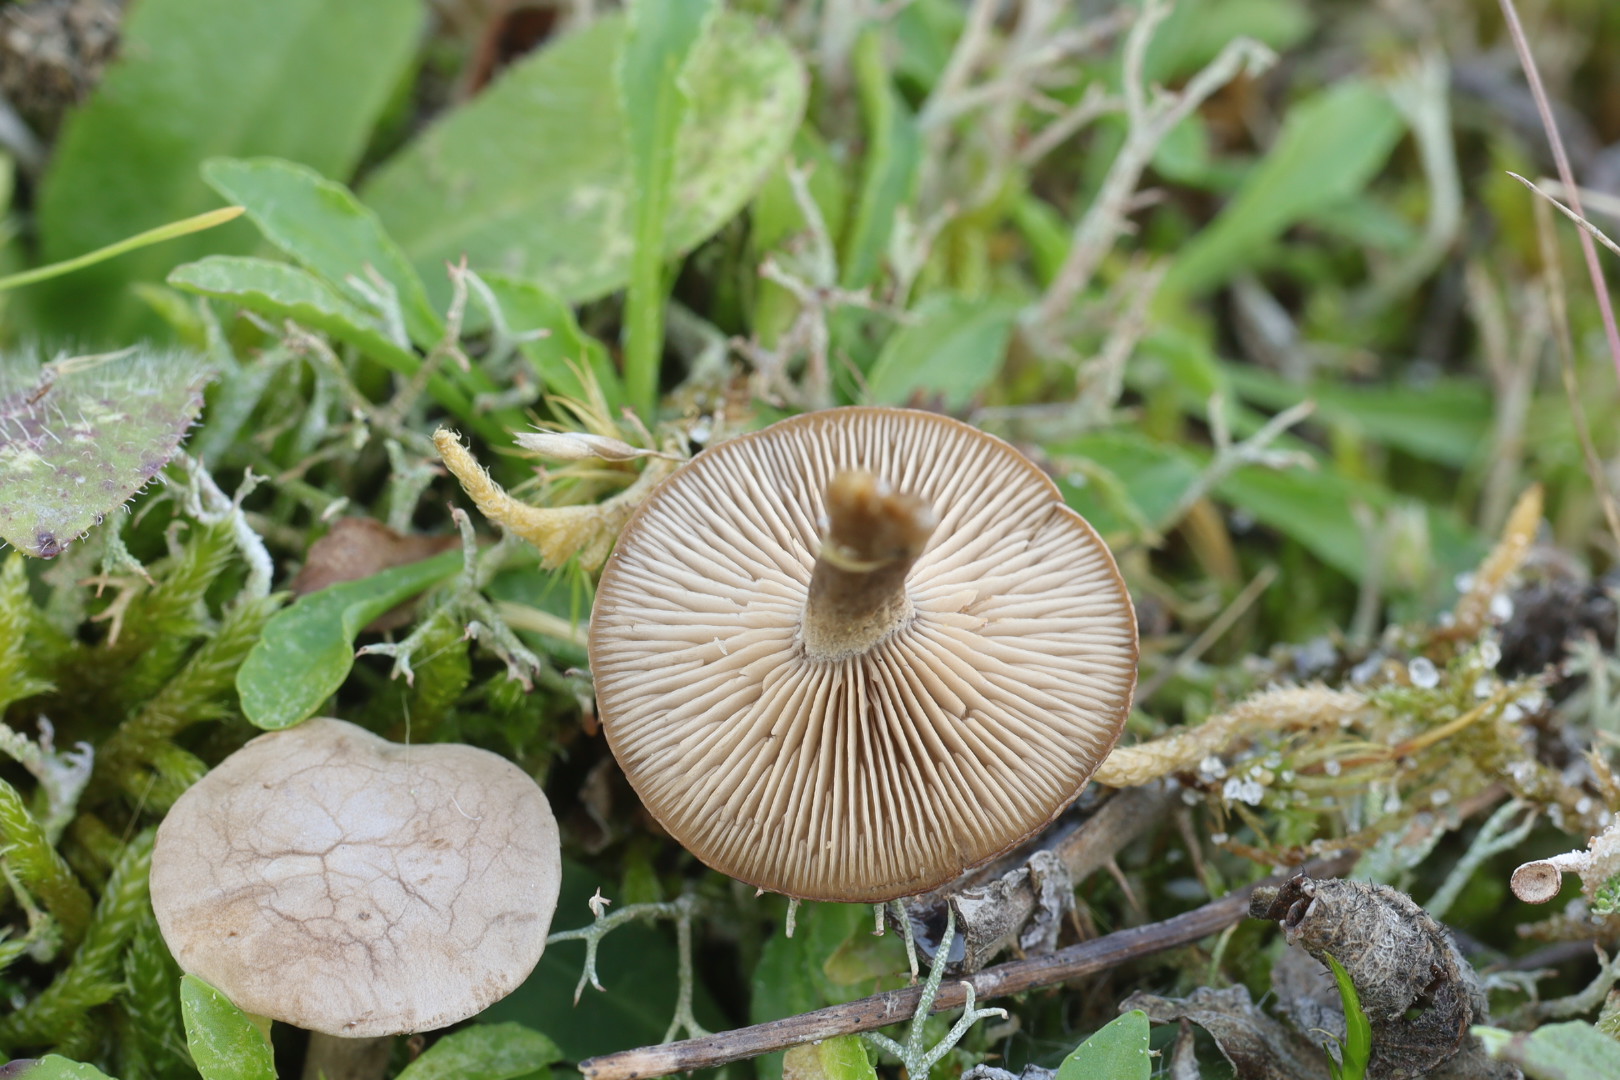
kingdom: Fungi
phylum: Basidiomycota
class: Agaricomycetes
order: Agaricales
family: Entolomataceae
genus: Rhodocybe
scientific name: Rhodocybe tugrulii
